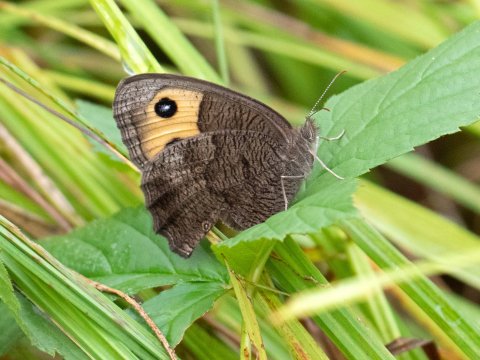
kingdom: Animalia
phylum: Arthropoda
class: Insecta
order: Lepidoptera
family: Nymphalidae
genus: Cercyonis
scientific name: Cercyonis pegala
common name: Common Wood-Nymph
